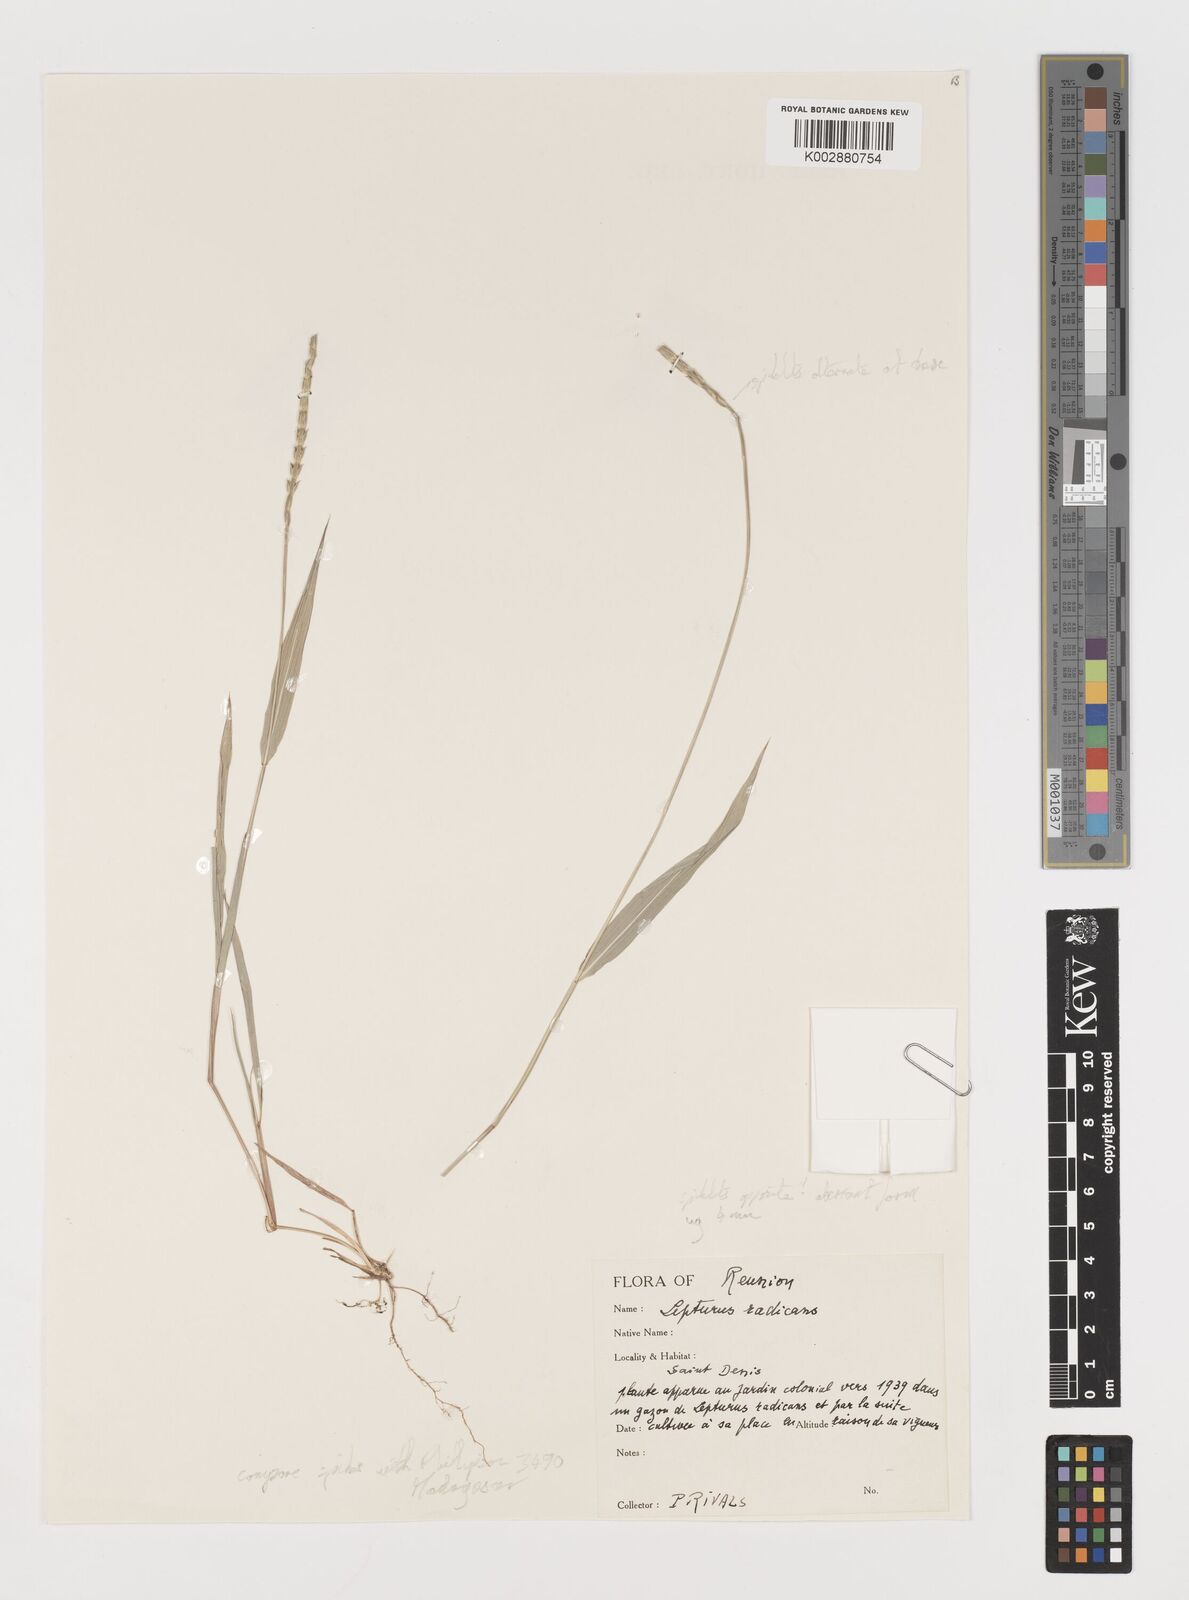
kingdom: Plantae
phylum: Tracheophyta
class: Liliopsida
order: Poales
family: Poaceae
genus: Lepturus
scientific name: Lepturus radicans
